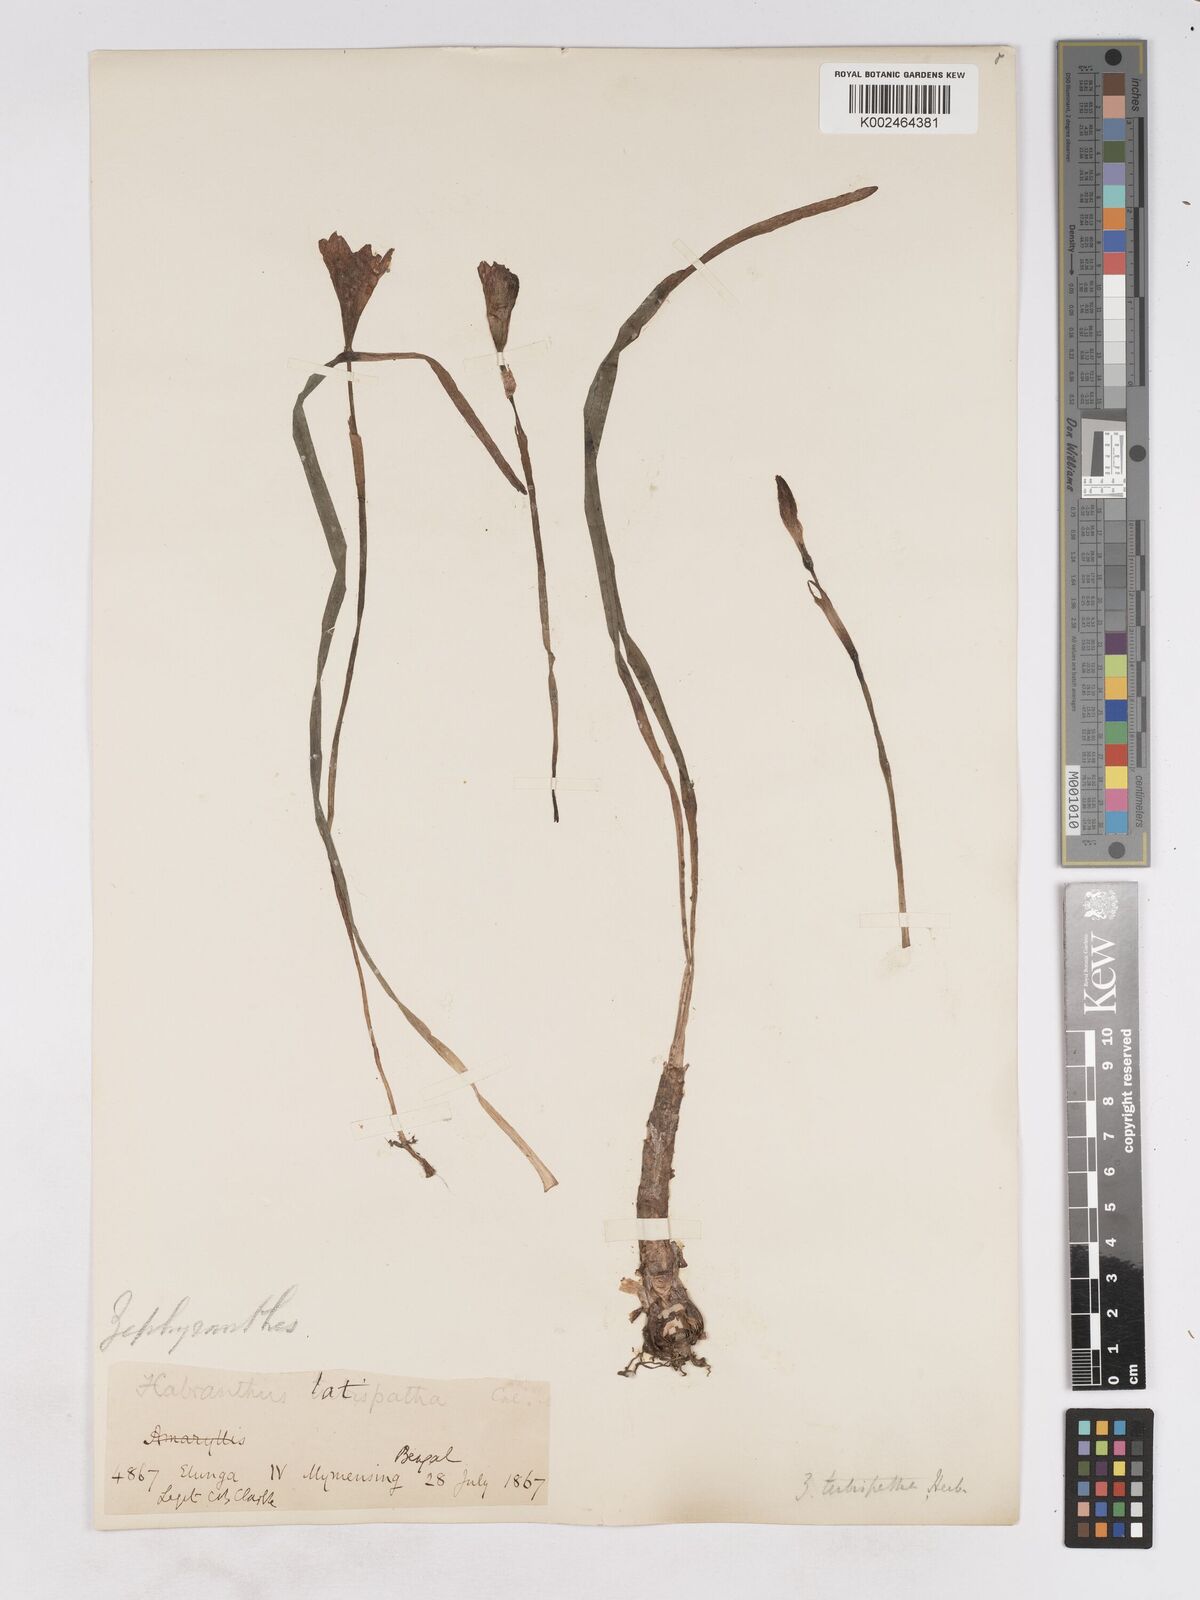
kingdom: Plantae
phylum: Tracheophyta
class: Liliopsida
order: Asparagales
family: Amaryllidaceae
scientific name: Amaryllidaceae
